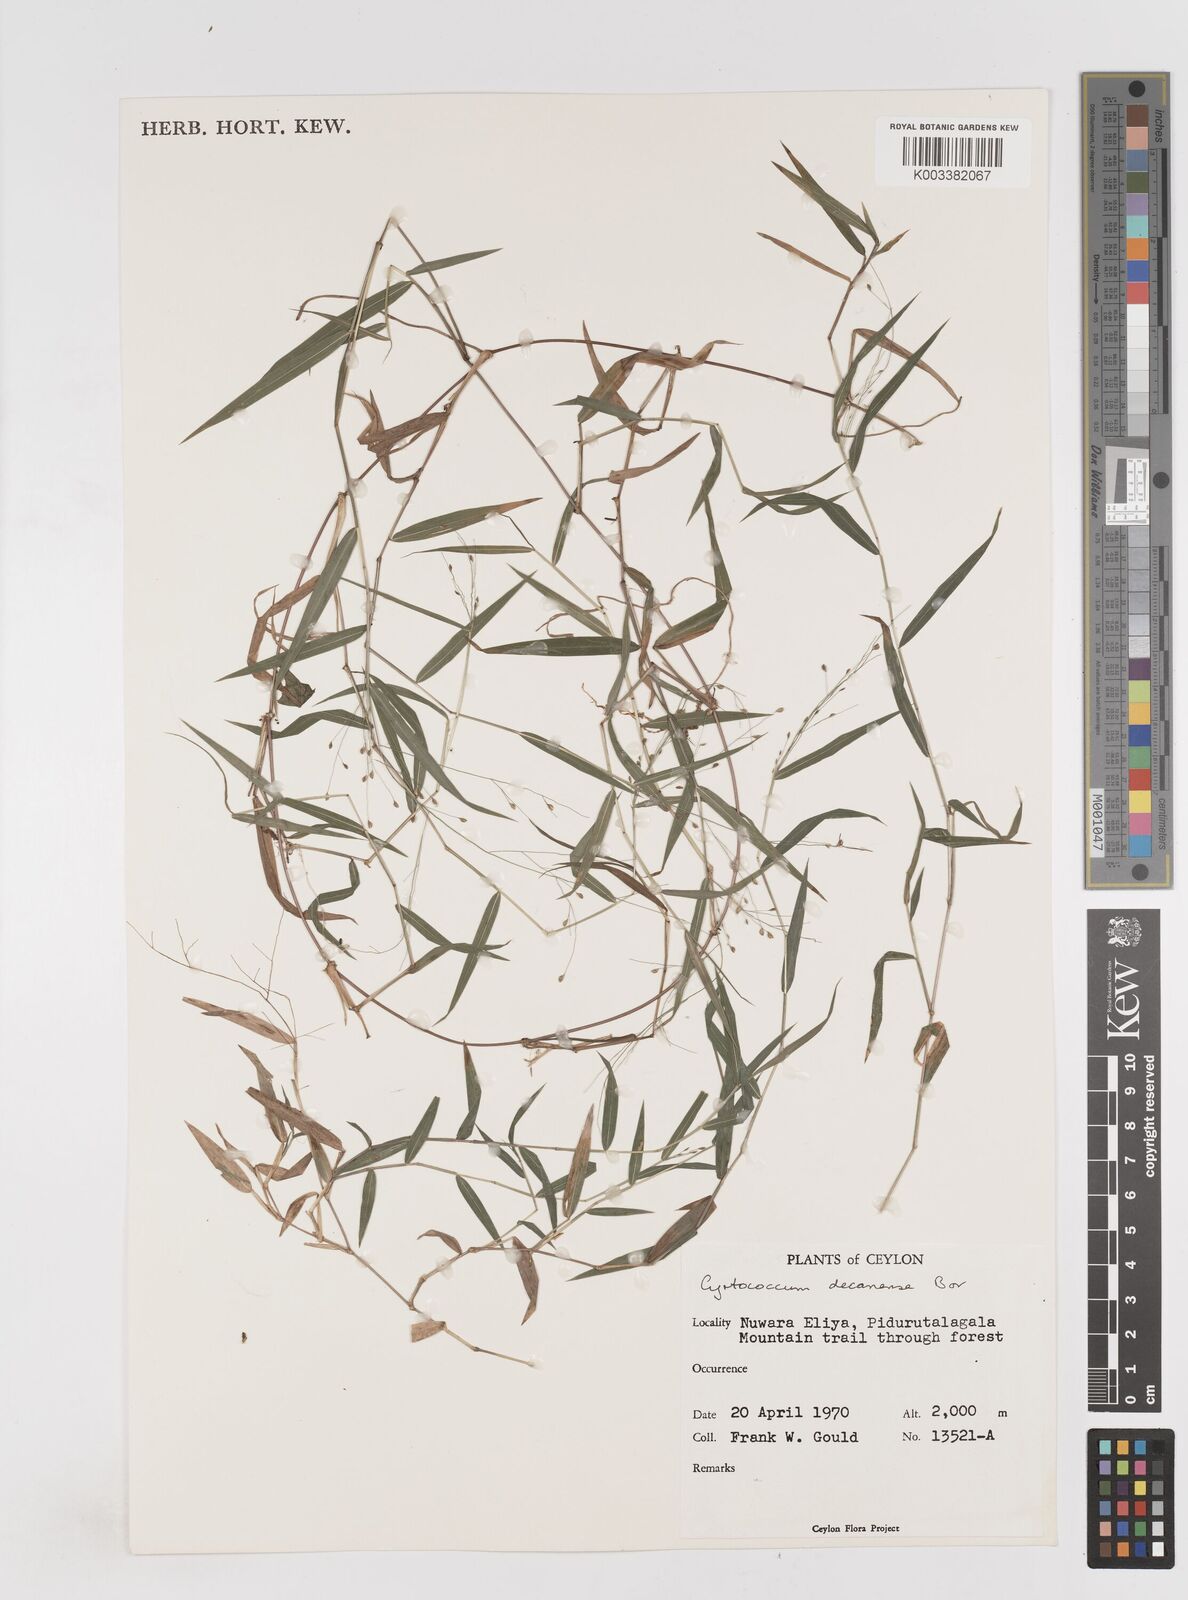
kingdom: Plantae
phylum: Tracheophyta
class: Liliopsida
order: Poales
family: Poaceae
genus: Cyrtococcum
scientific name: Cyrtococcum deccanense
